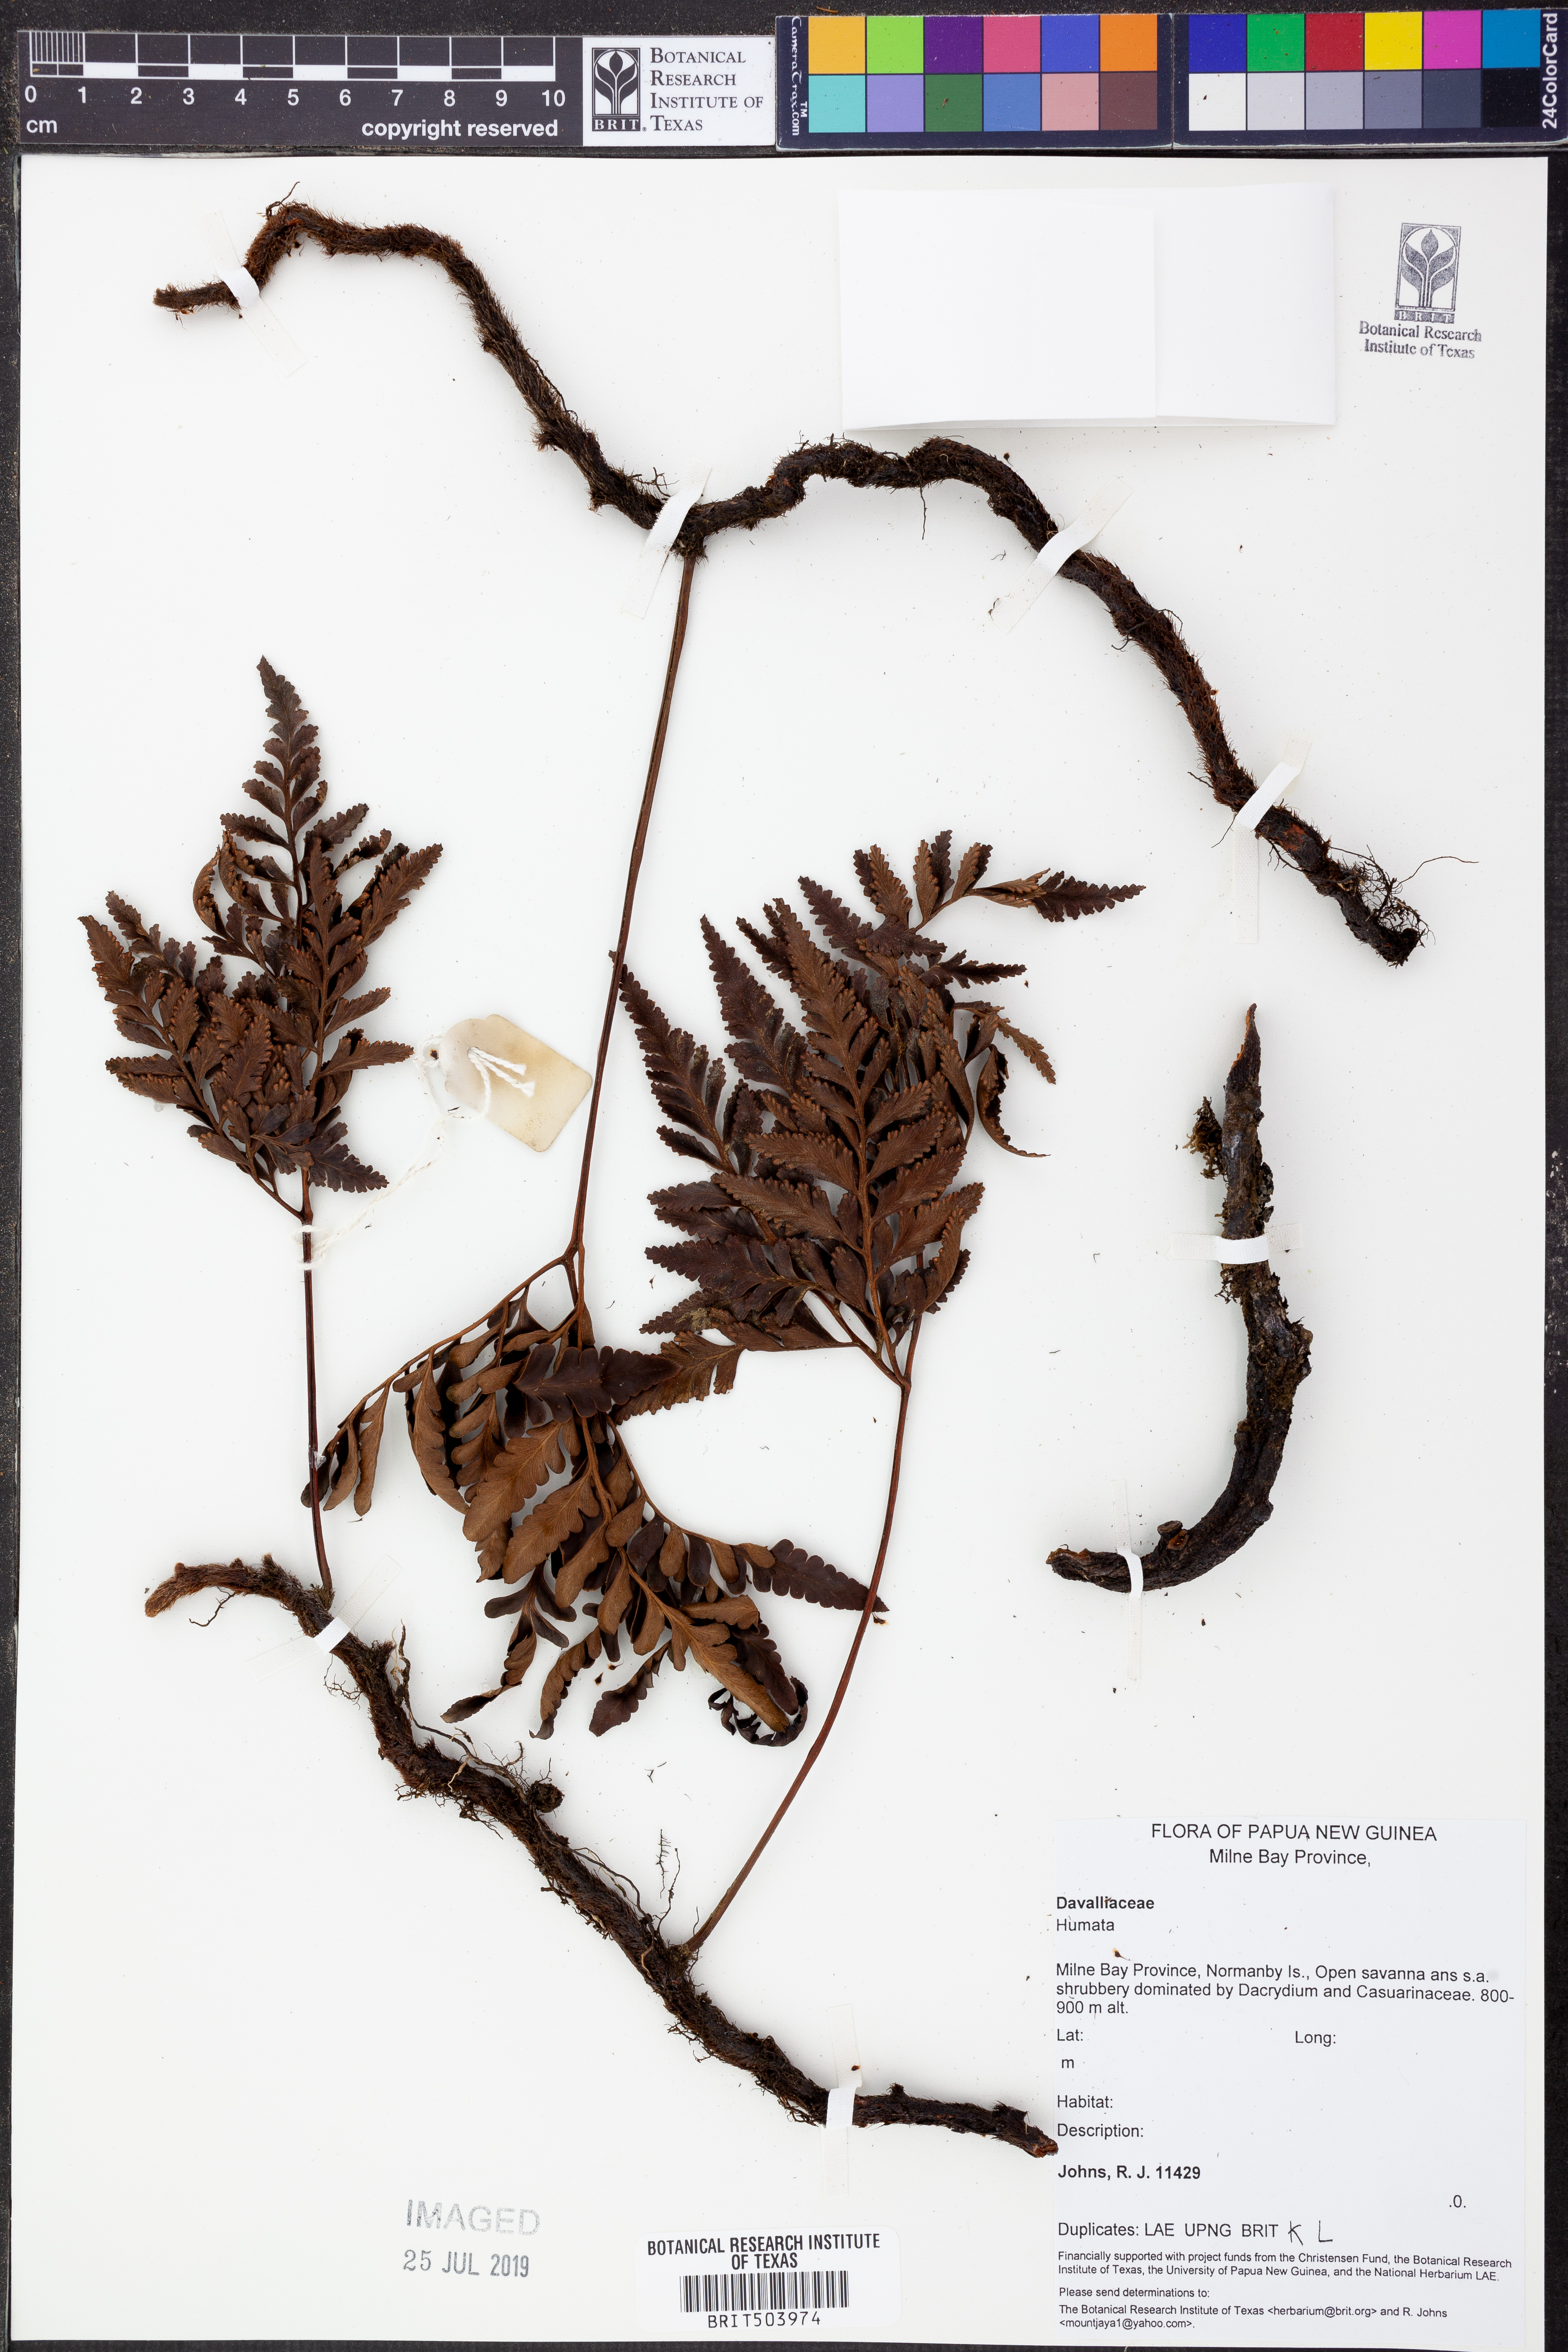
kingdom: Plantae
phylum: Tracheophyta
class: Polypodiopsida
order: Polypodiales
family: Davalliaceae
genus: Davallia
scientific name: Davallia
